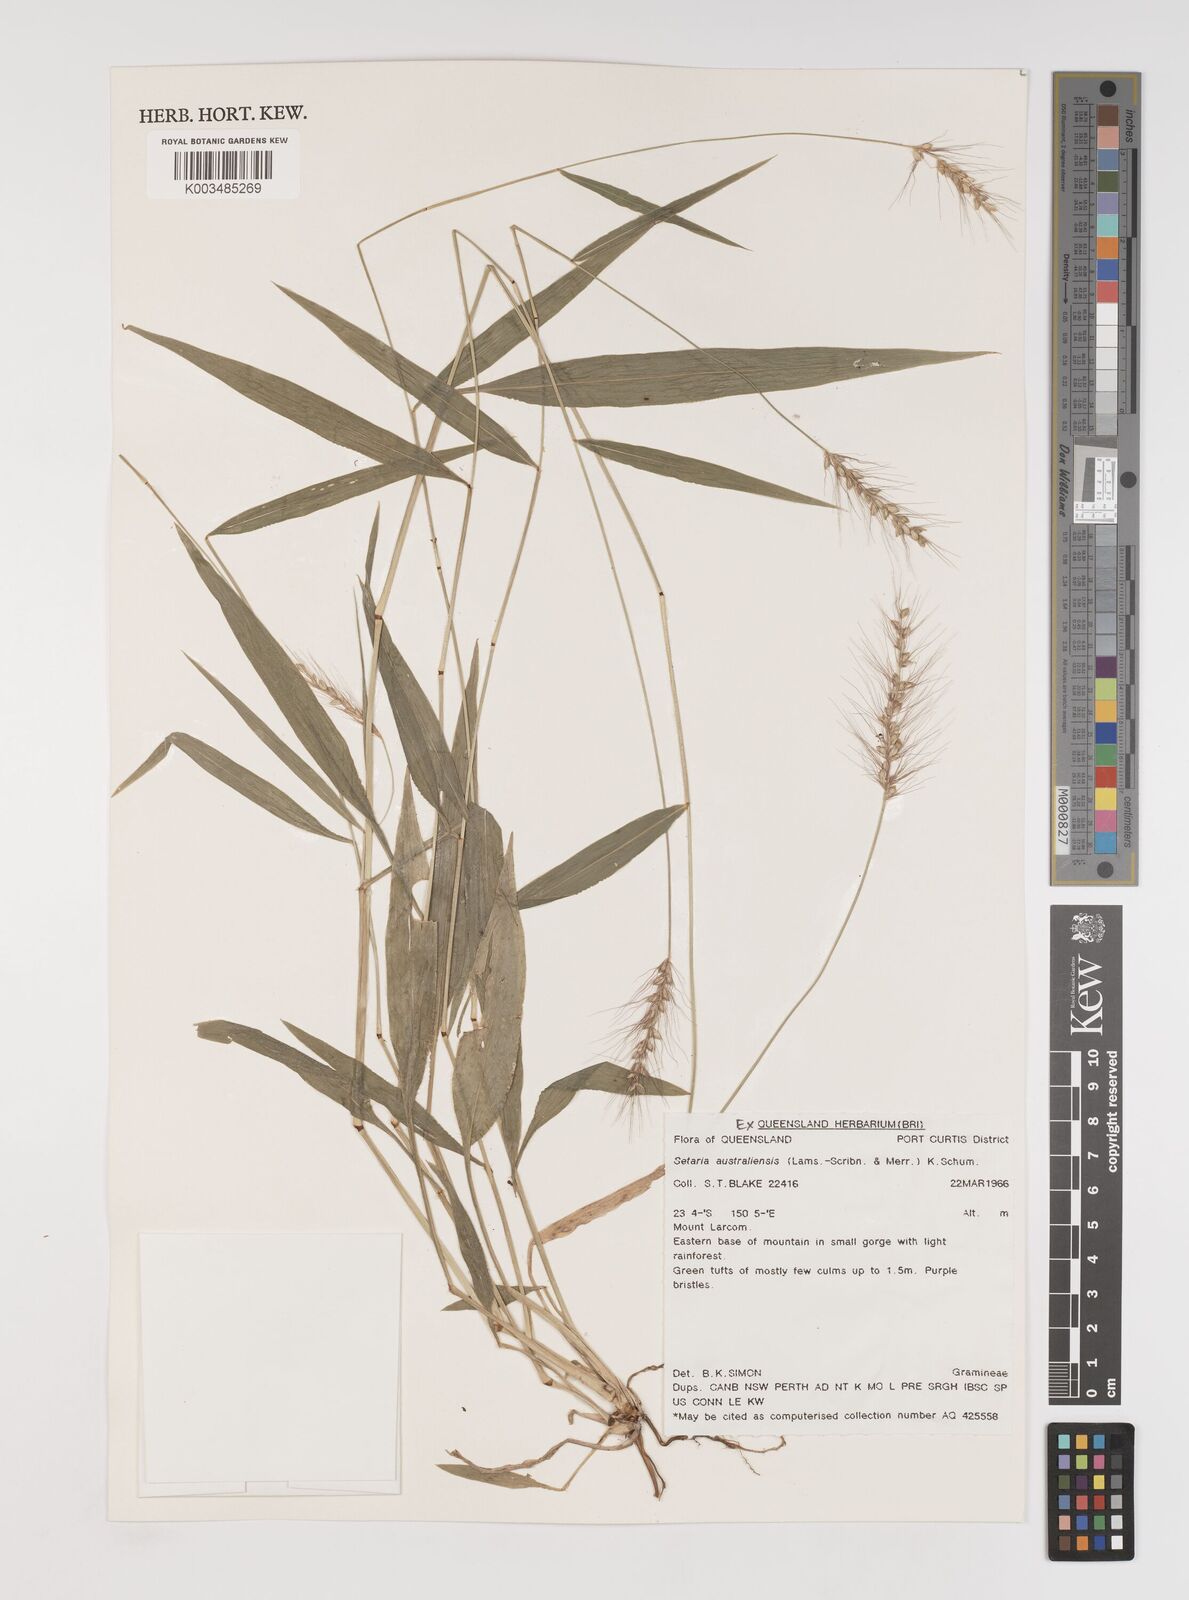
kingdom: Plantae
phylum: Tracheophyta
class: Liliopsida
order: Poales
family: Poaceae
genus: Setaria
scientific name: Setaria australiensis
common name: Scrub pigeon grass
